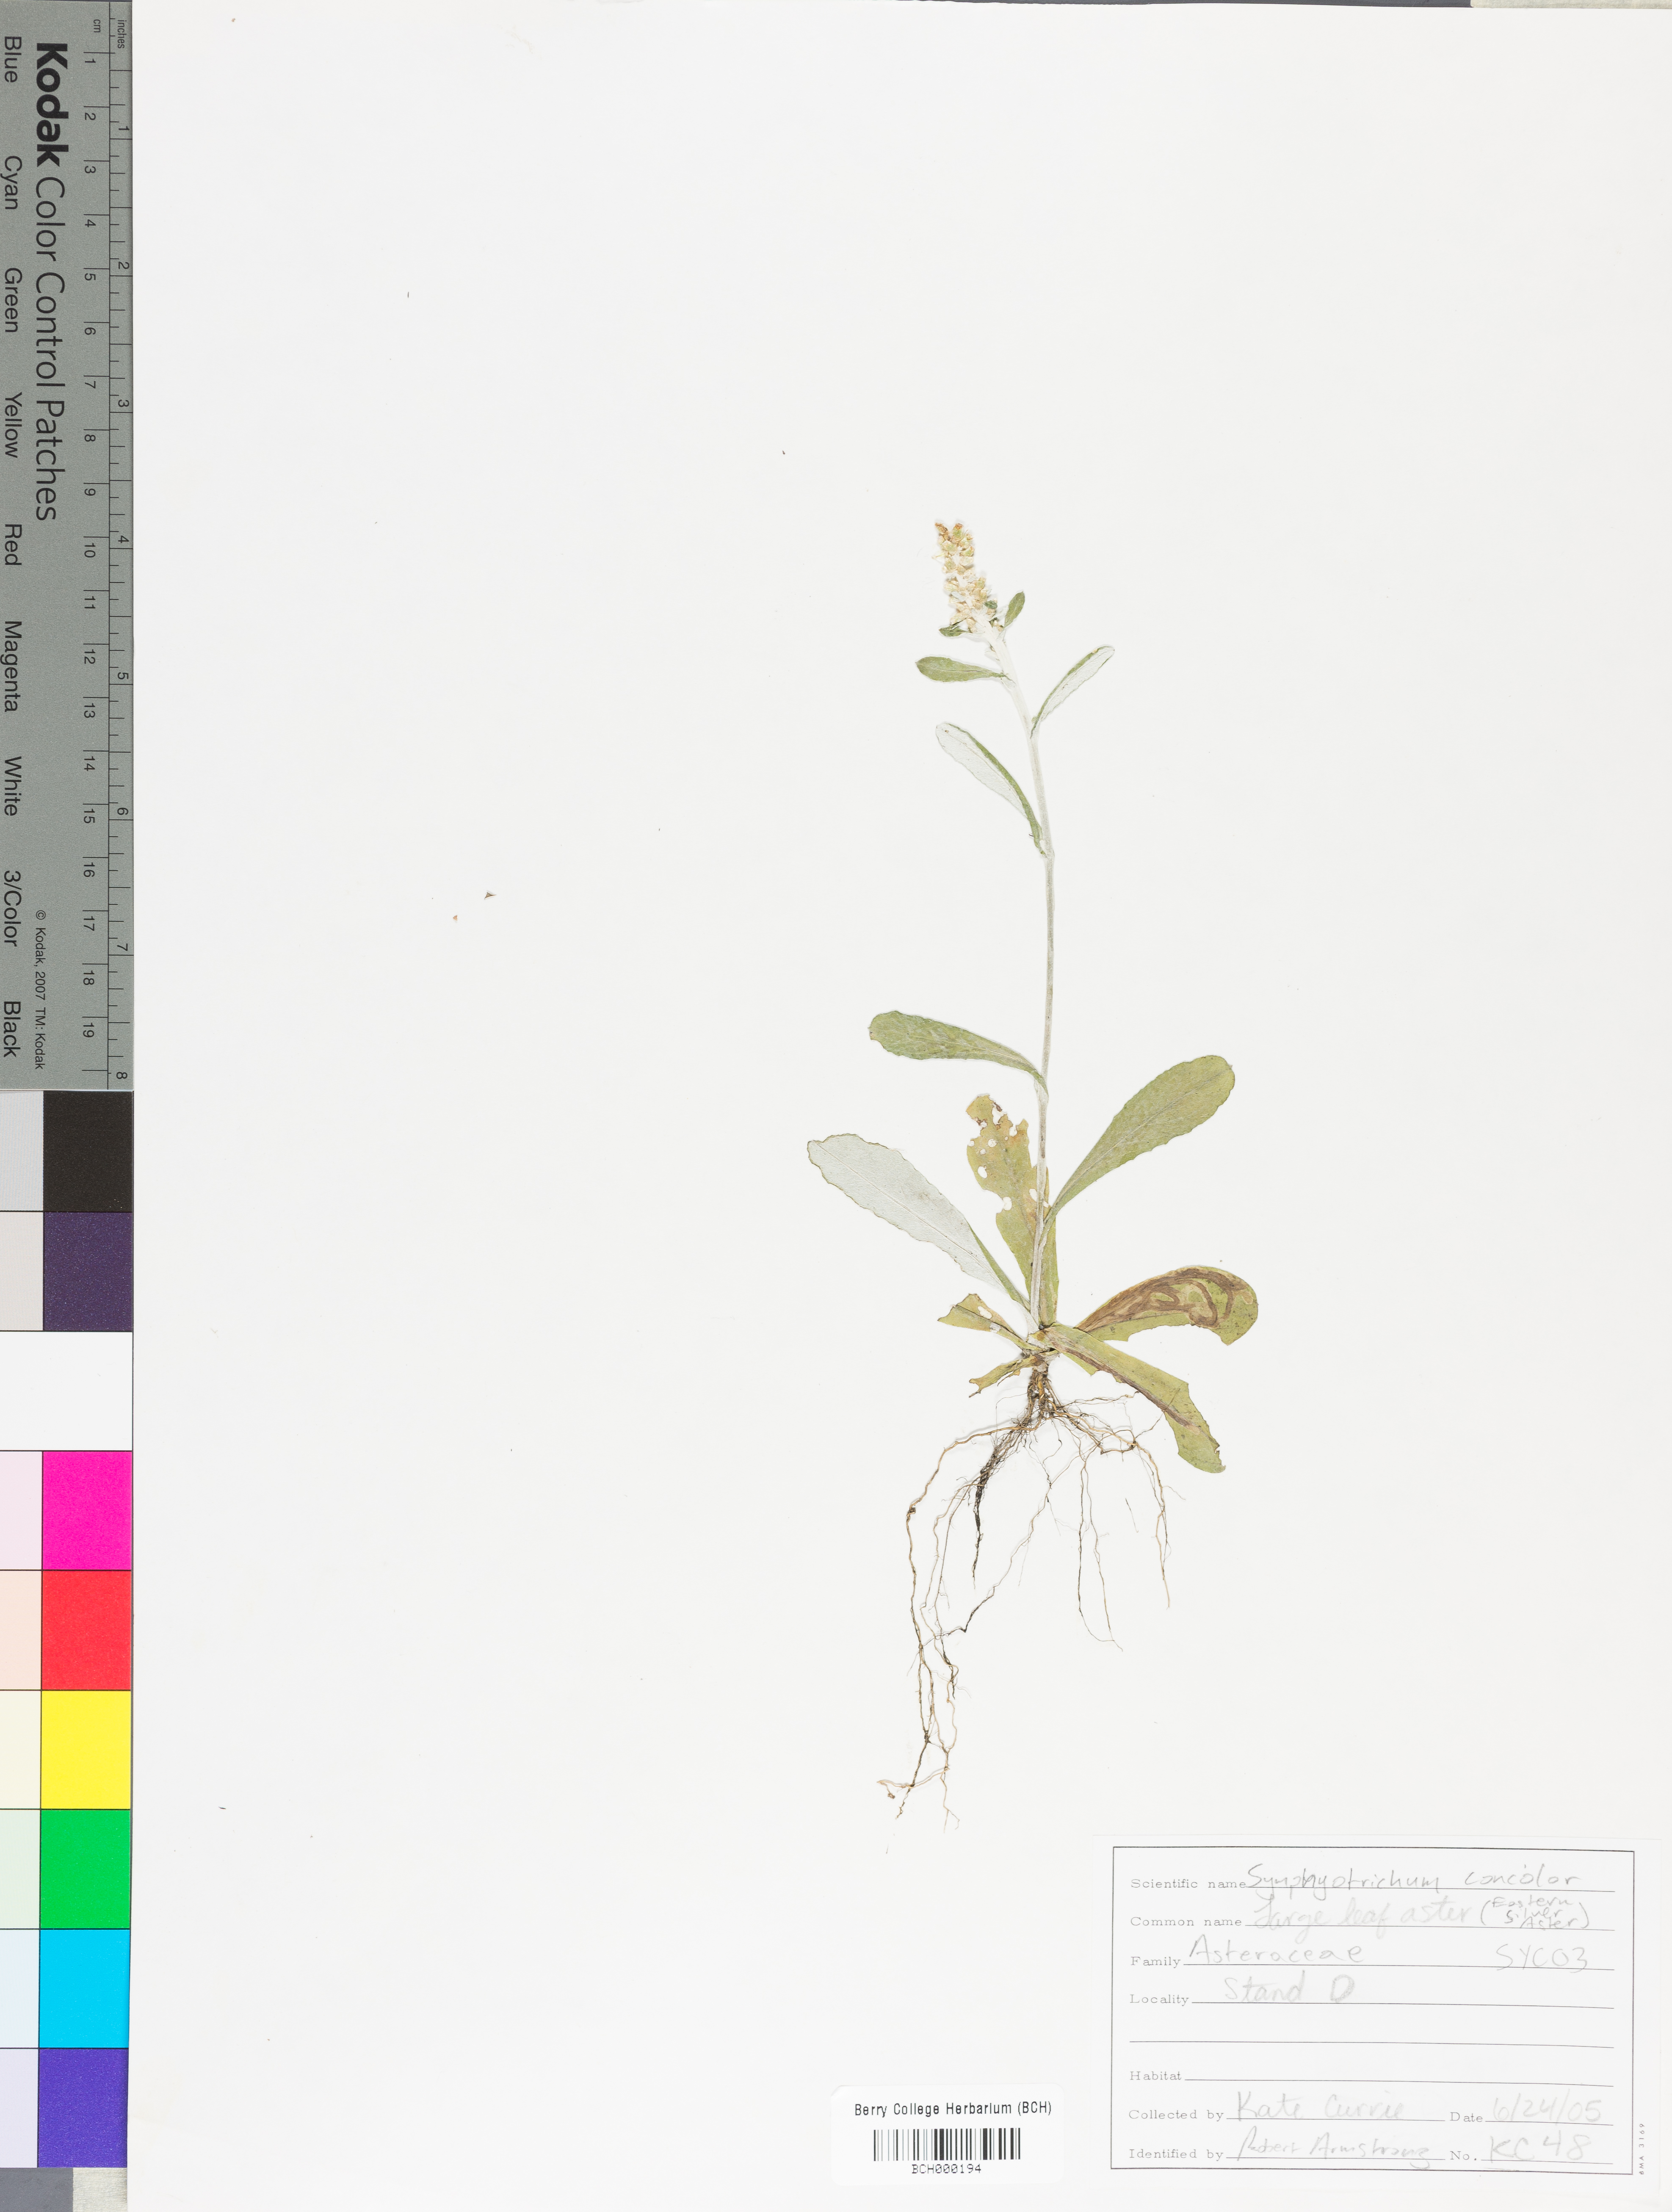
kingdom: Plantae
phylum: Tracheophyta
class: Magnoliopsida
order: Asterales
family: Asteraceae
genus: Symphyotrichum
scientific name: Symphyotrichum concolor
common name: Eastern silver aster
